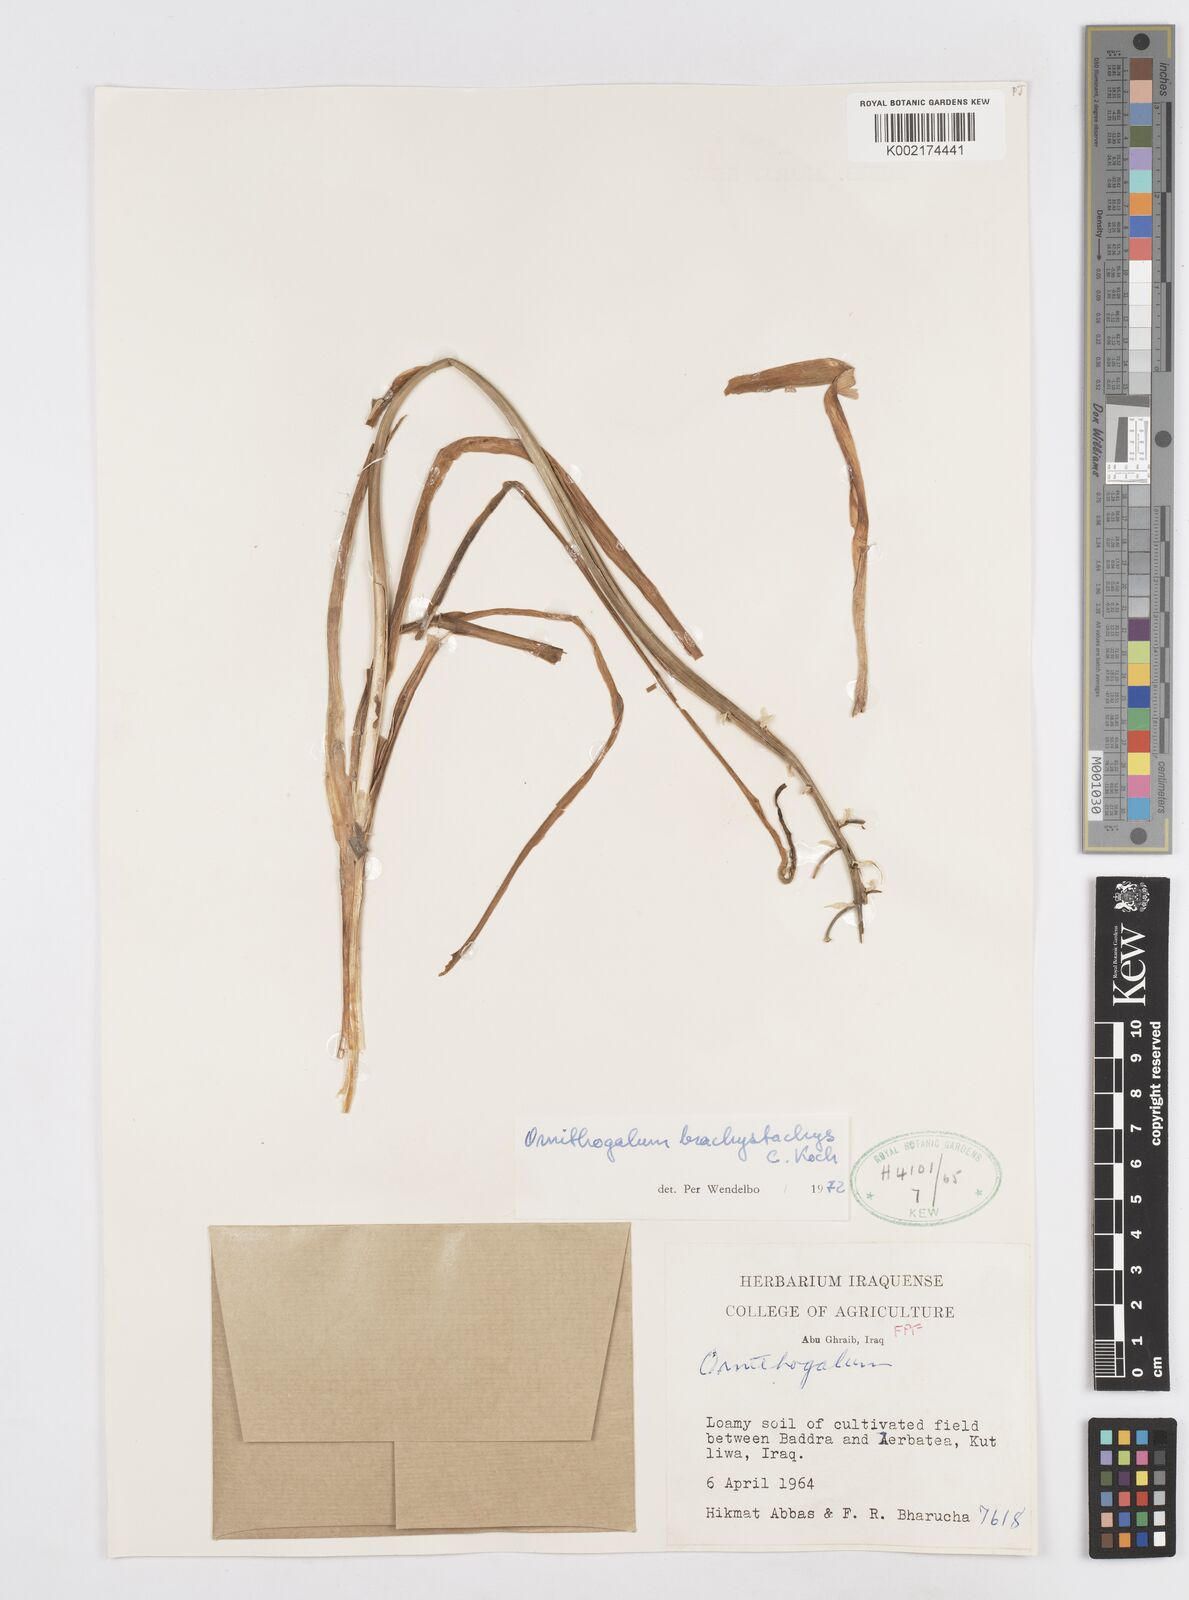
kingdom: Plantae
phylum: Tracheophyta
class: Liliopsida
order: Asparagales
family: Asparagaceae
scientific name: Asparagaceae
